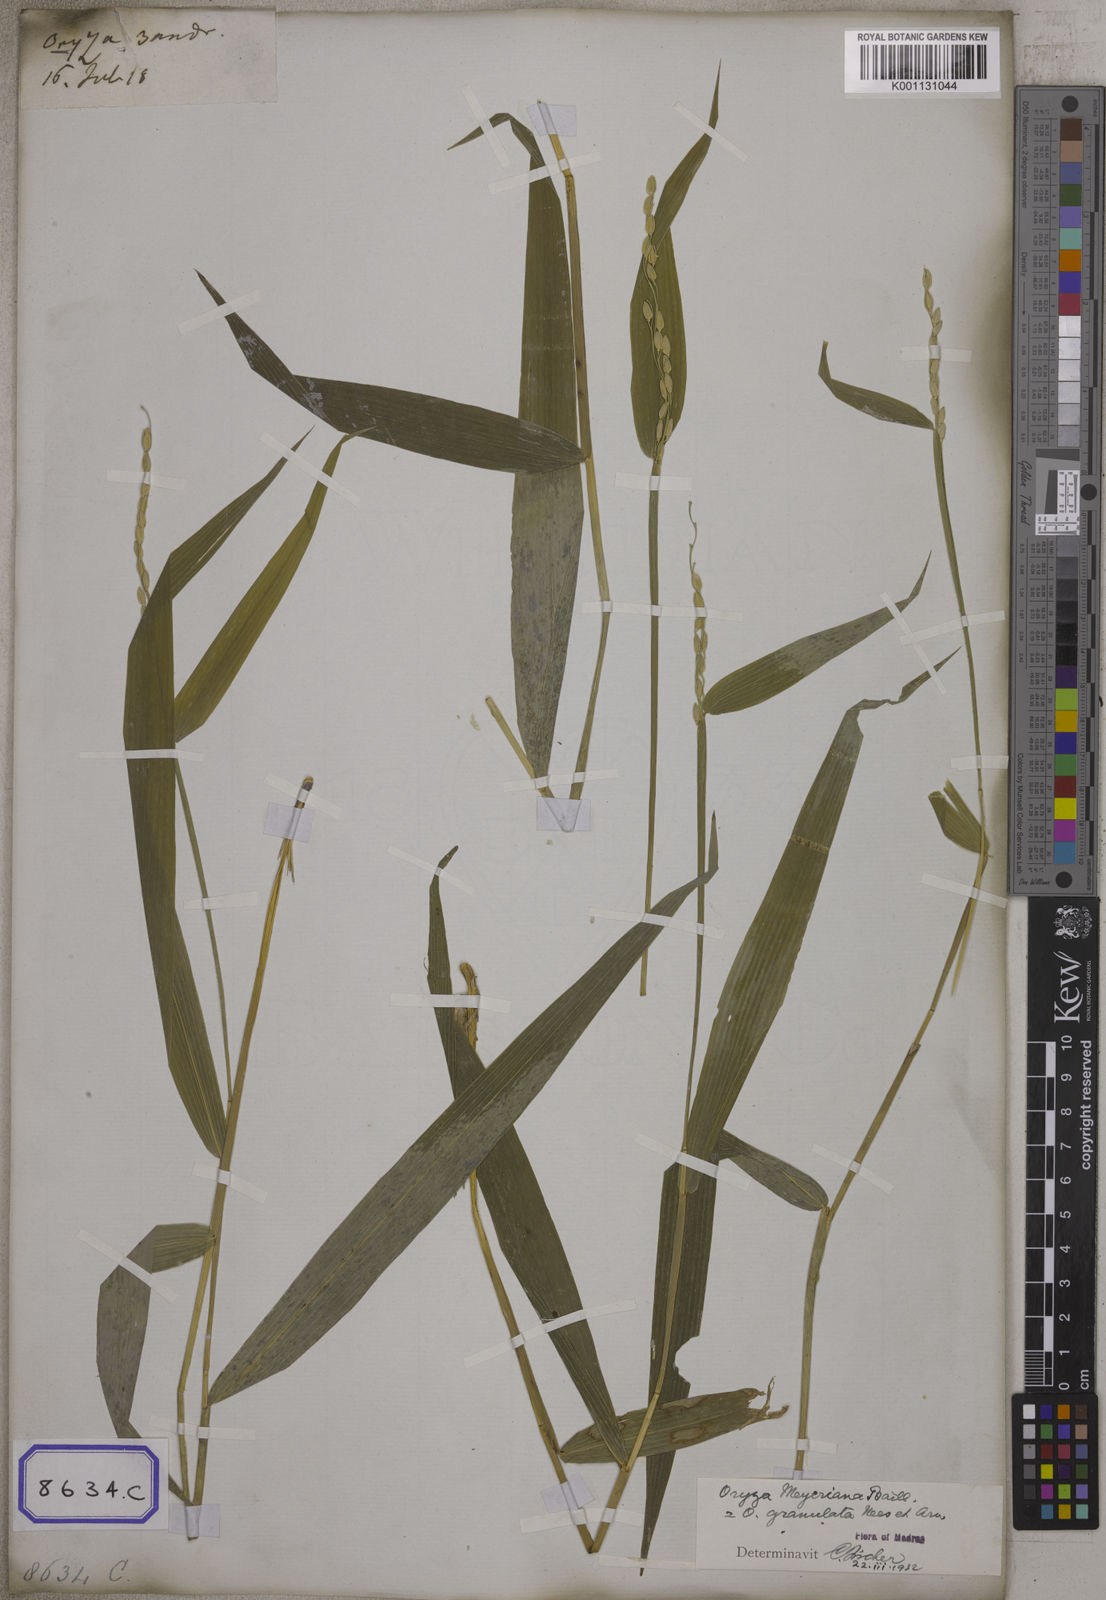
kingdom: Plantae
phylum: Tracheophyta
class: Liliopsida
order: Poales
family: Poaceae
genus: Oryza
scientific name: Oryza
